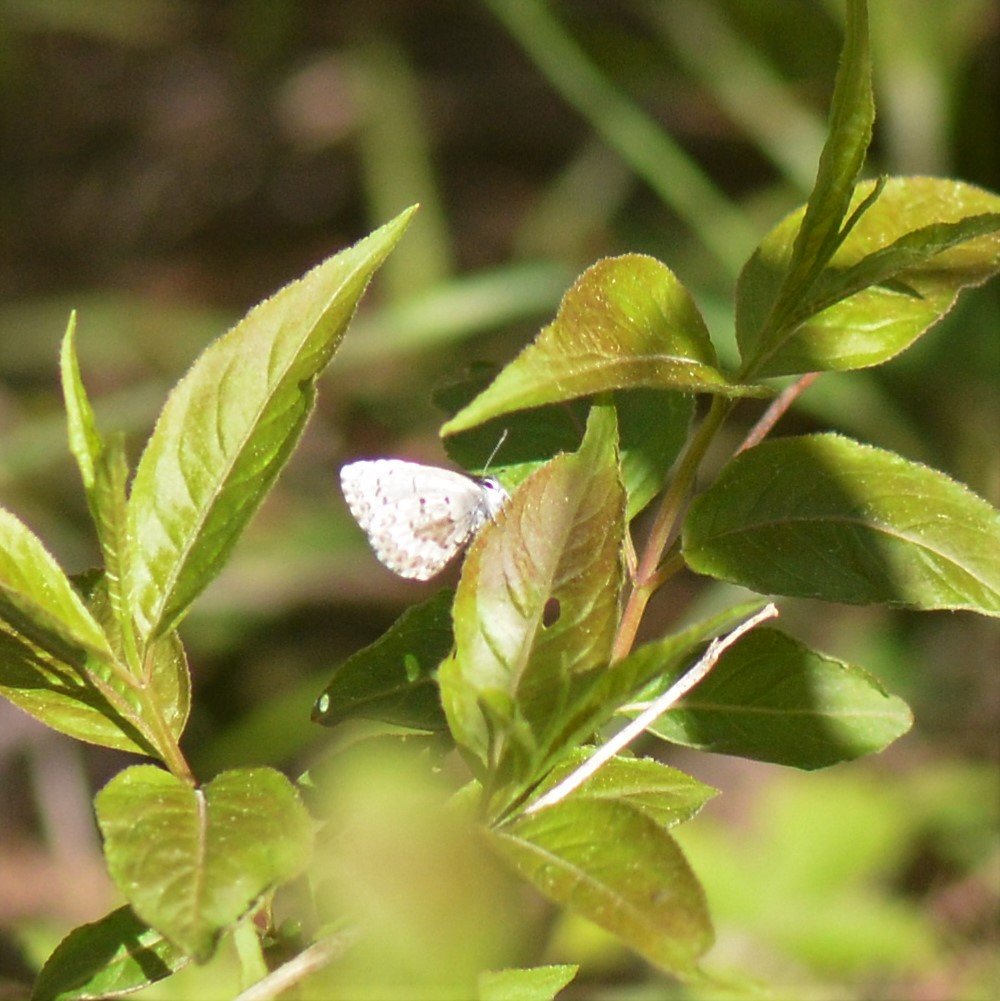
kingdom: Animalia
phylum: Arthropoda
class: Insecta
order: Lepidoptera
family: Lycaenidae
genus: Celastrina
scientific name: Celastrina lucia
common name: Northern Spring Azure
